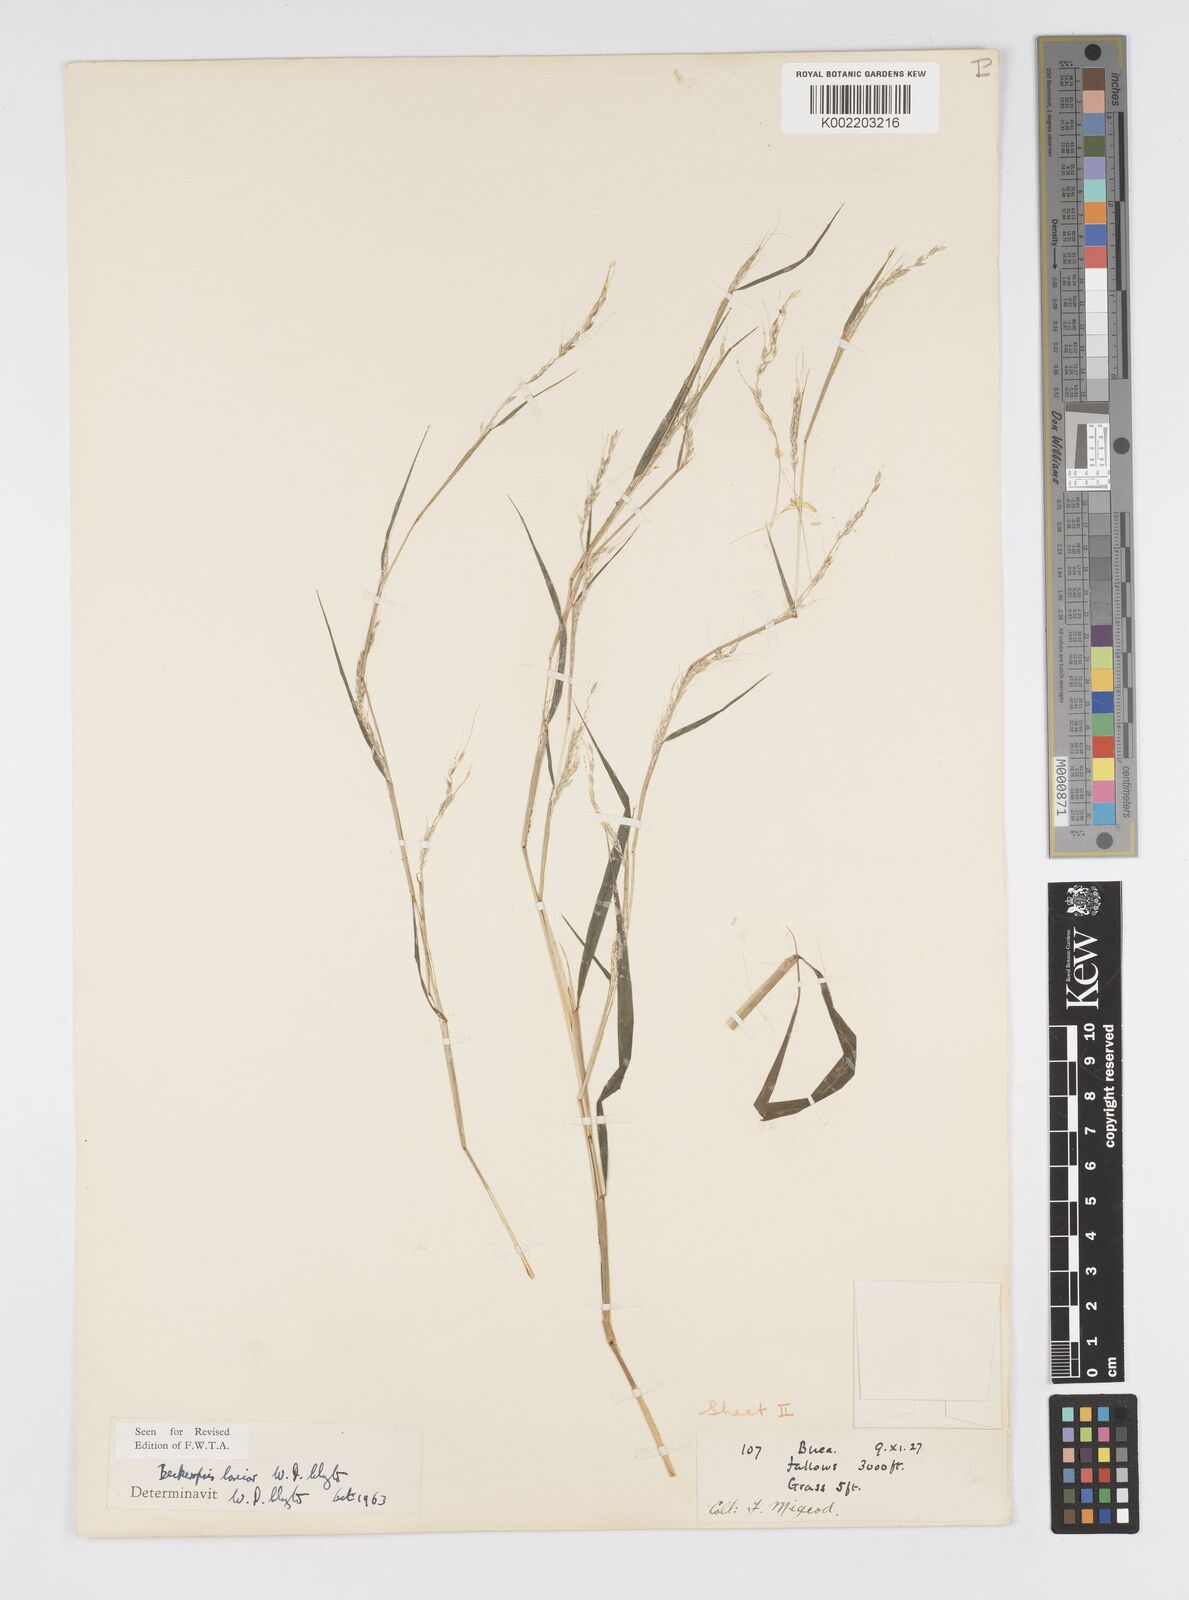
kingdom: Plantae
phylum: Tracheophyta
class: Liliopsida
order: Poales
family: Poaceae
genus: Cenchrus
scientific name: Cenchrus Pennisetum spec
